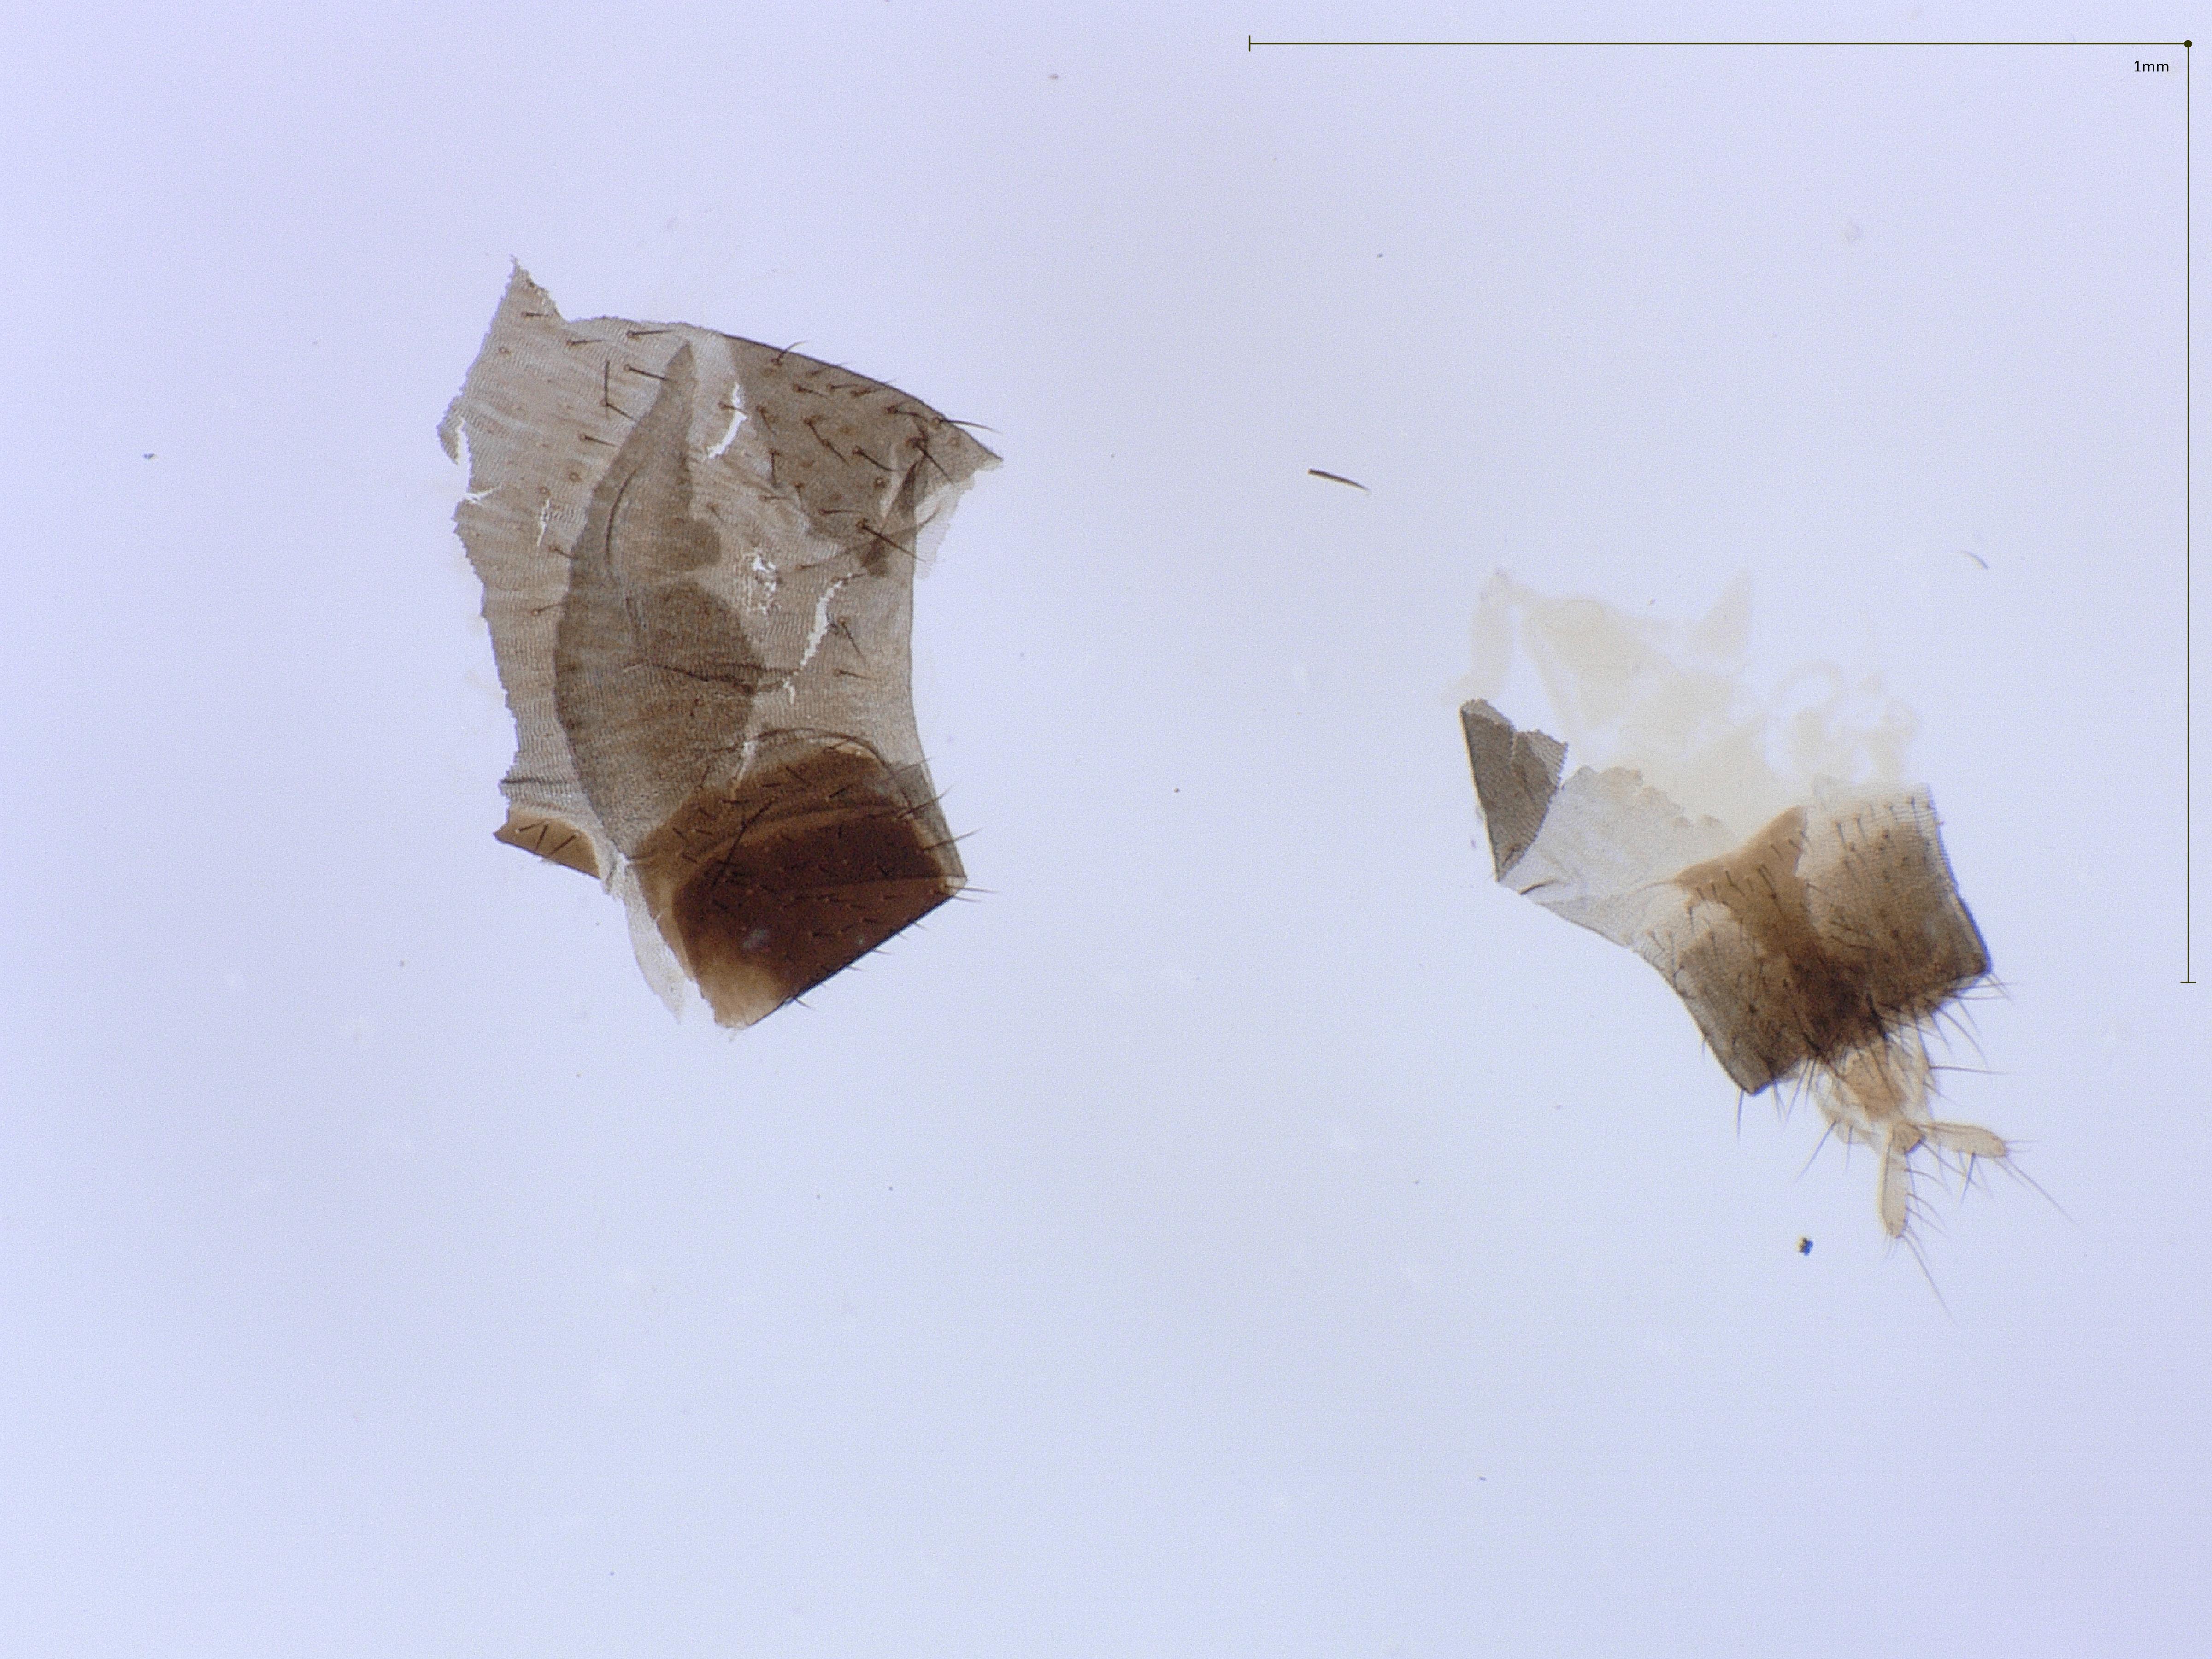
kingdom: Animalia
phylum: Arthropoda
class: Insecta
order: Diptera
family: Phoridae
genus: Megaselia
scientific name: Megaselia
